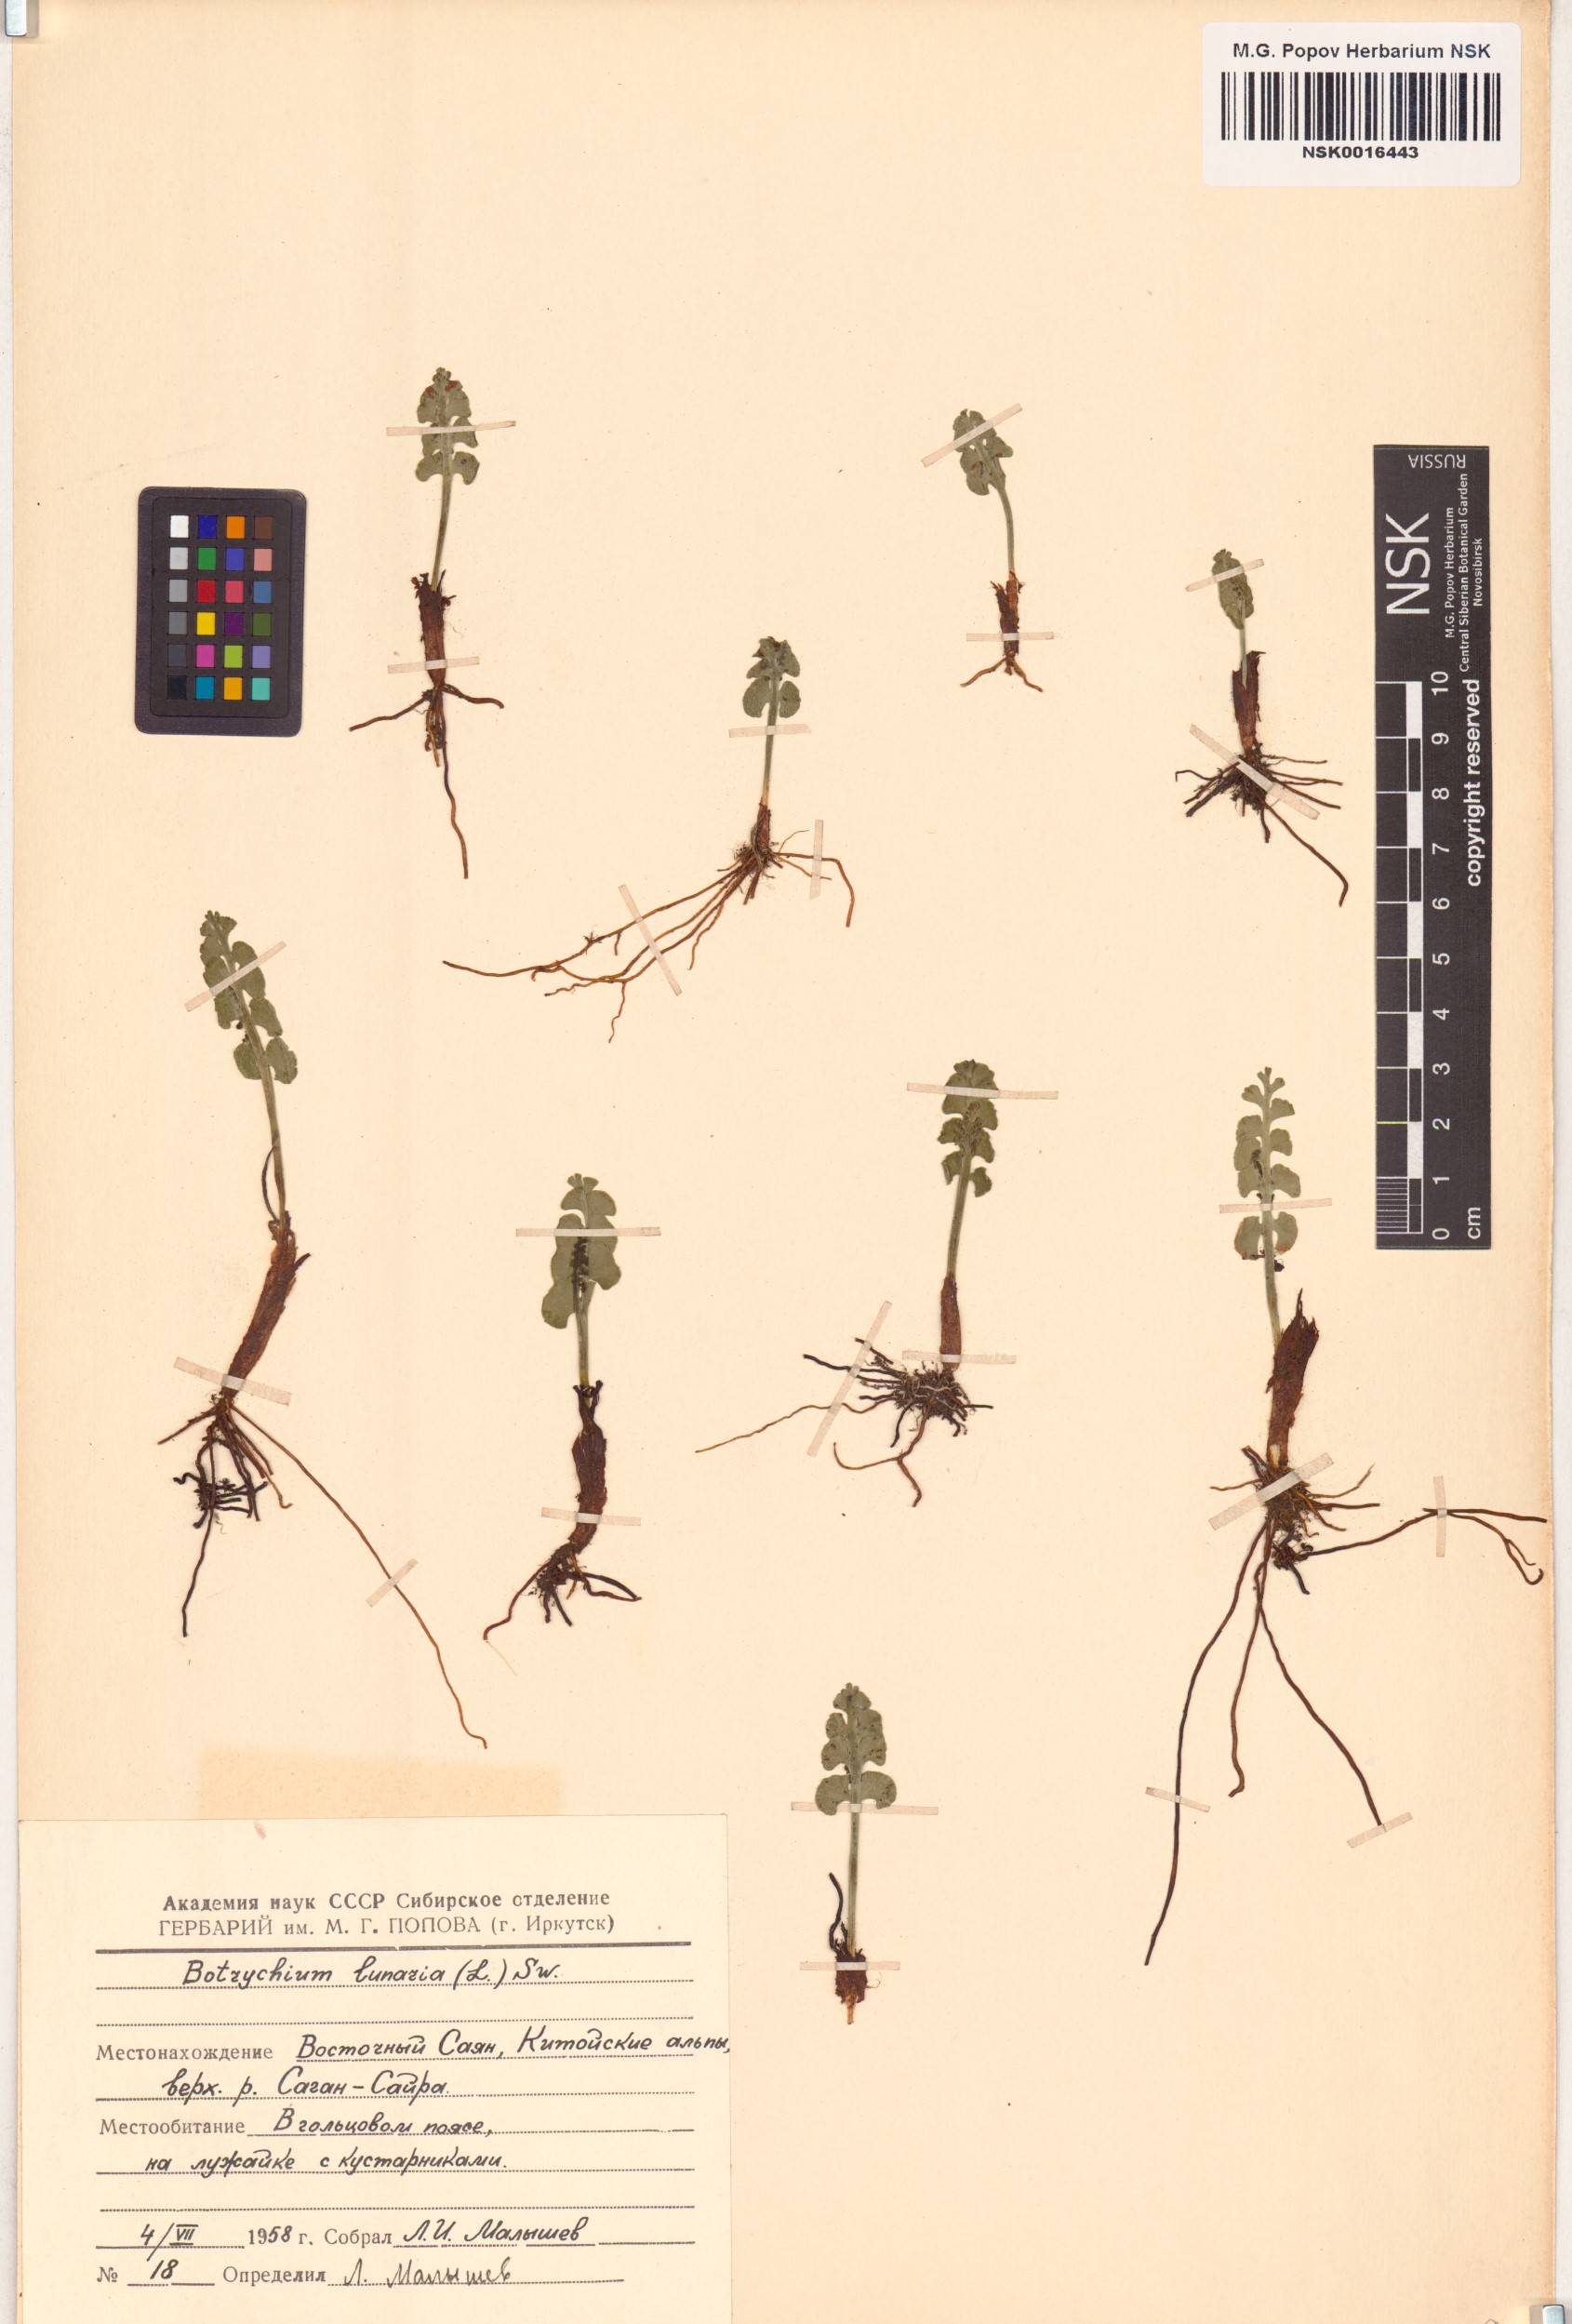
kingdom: Plantae
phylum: Tracheophyta
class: Polypodiopsida
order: Ophioglossales
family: Ophioglossaceae
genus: Botrychium
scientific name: Botrychium lunaria
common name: Moonwort
